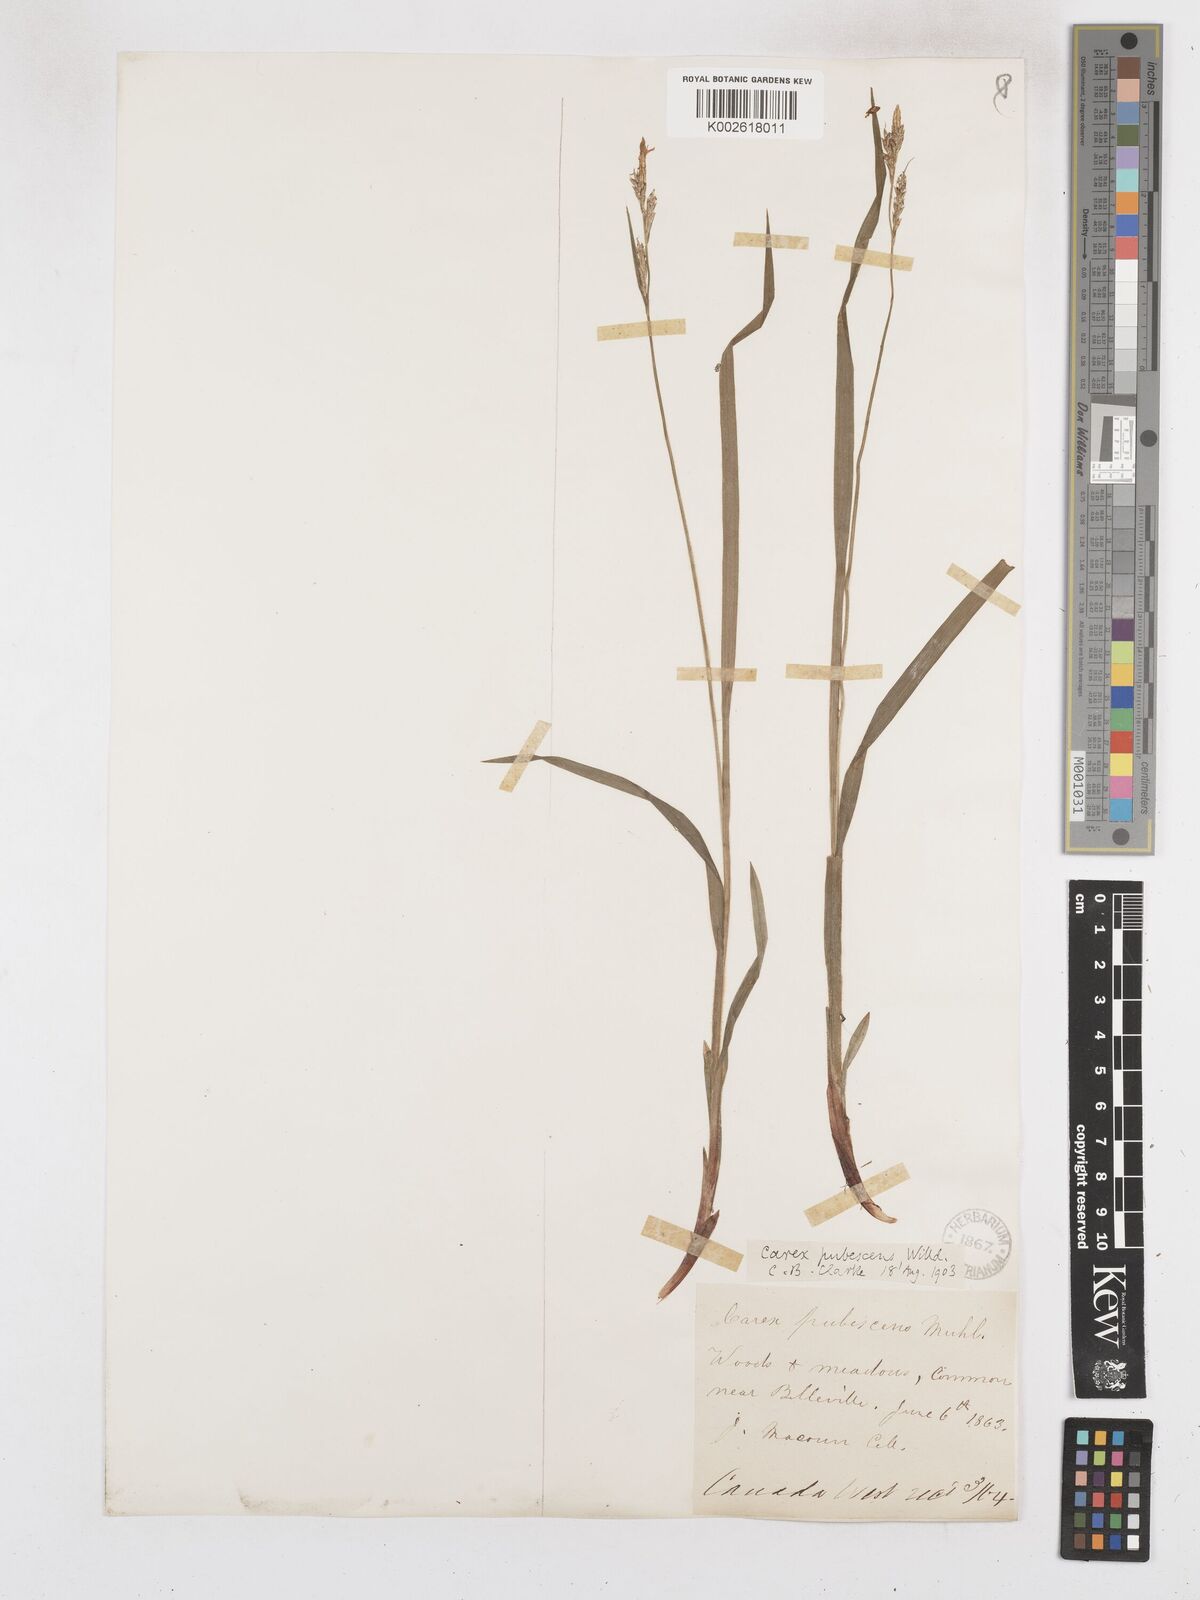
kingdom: Plantae
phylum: Tracheophyta
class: Liliopsida
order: Poales
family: Cyperaceae
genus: Carex
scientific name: Carex hirtifolia
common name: Hairy sedge
